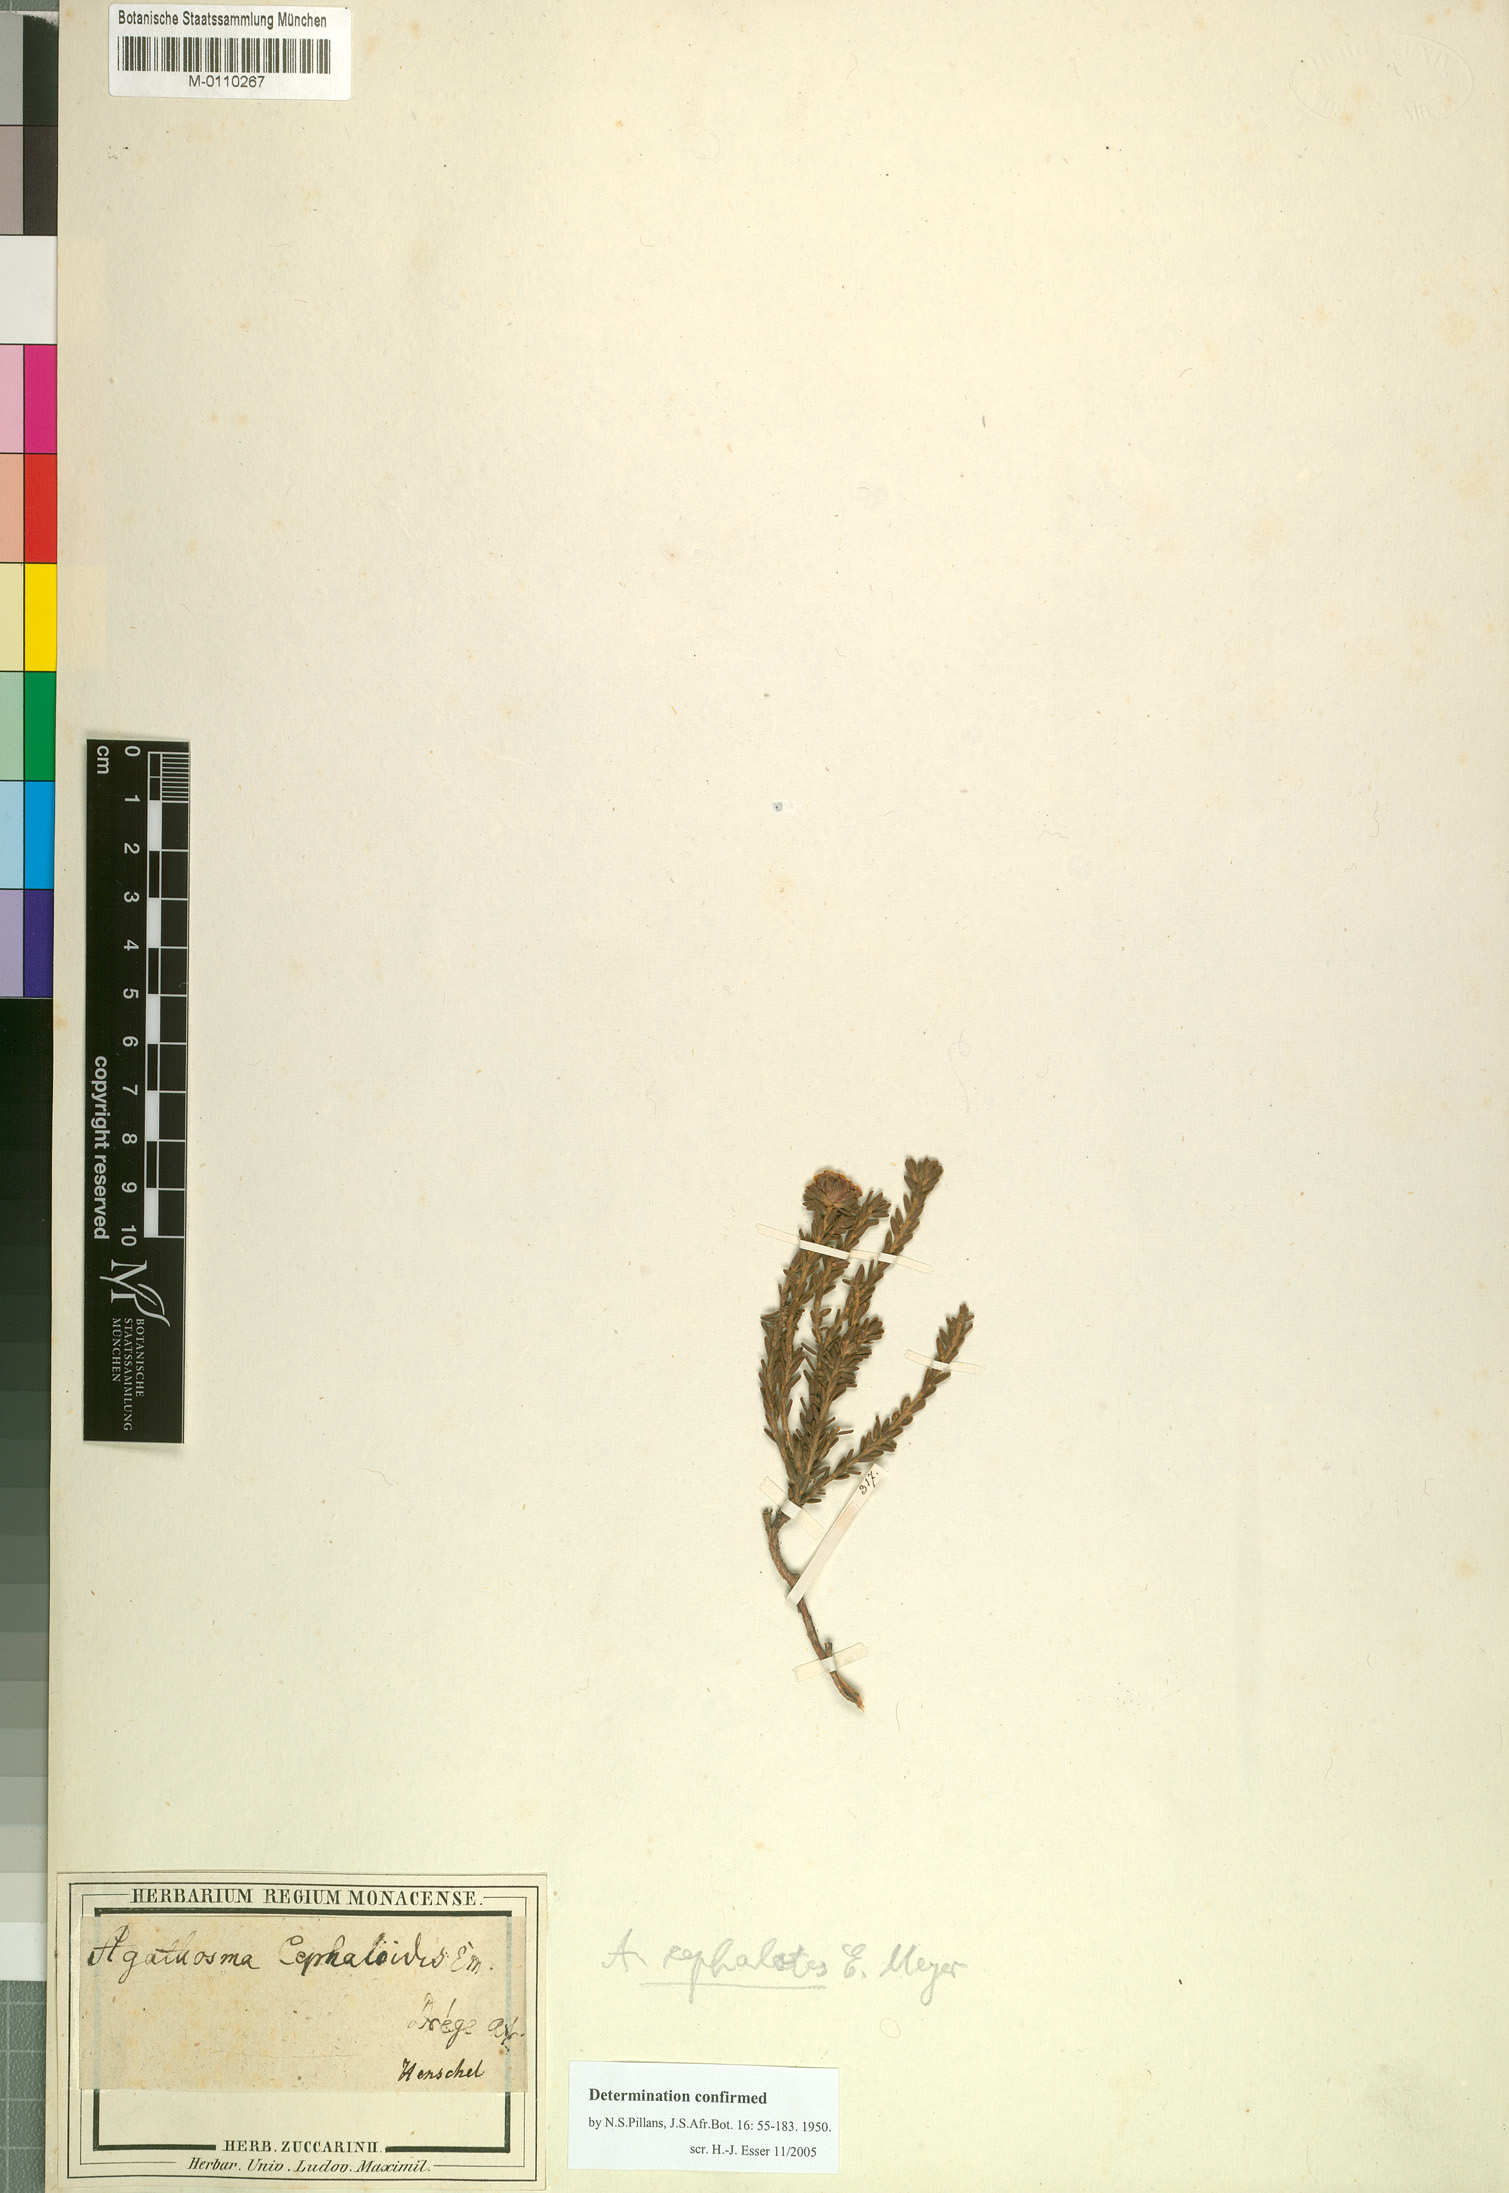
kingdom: Plantae
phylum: Tracheophyta
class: Magnoliopsida
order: Sapindales
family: Rutaceae
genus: Agathosma
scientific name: Agathosma cephalotes
